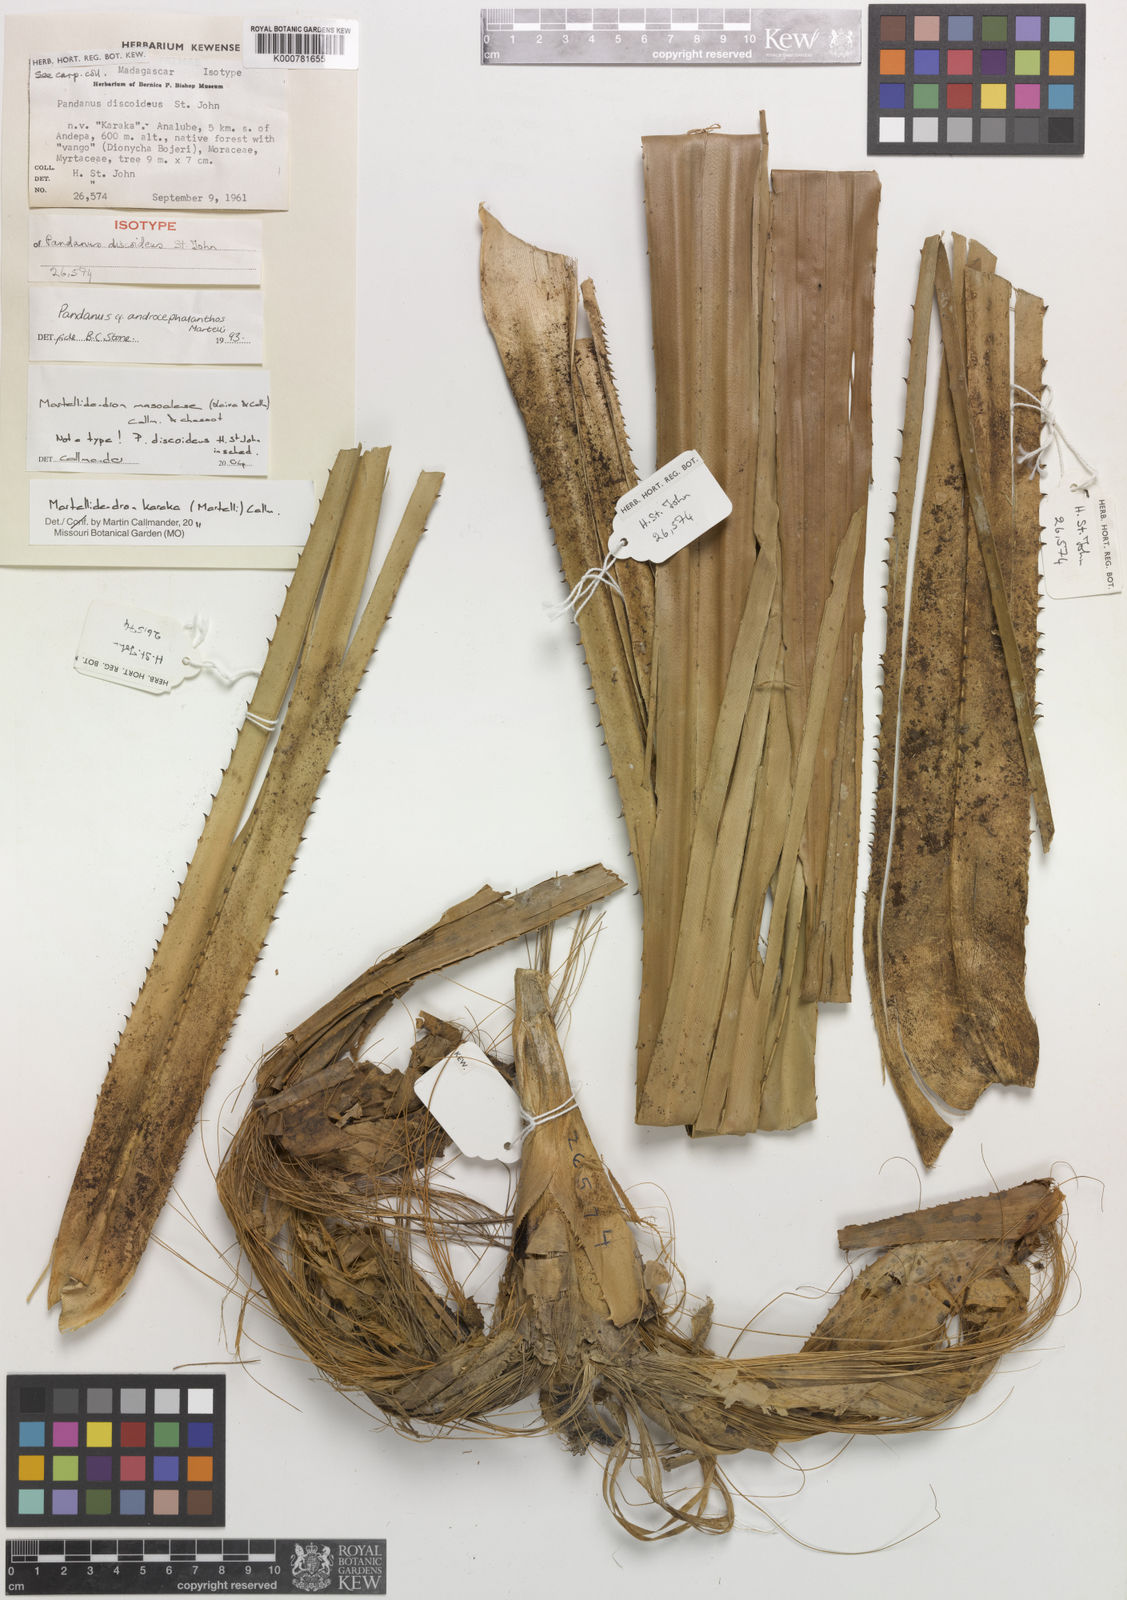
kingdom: Plantae
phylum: Tracheophyta
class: Liliopsida
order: Pandanales
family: Pandanaceae
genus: Martellidendron
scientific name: Martellidendron karaka
